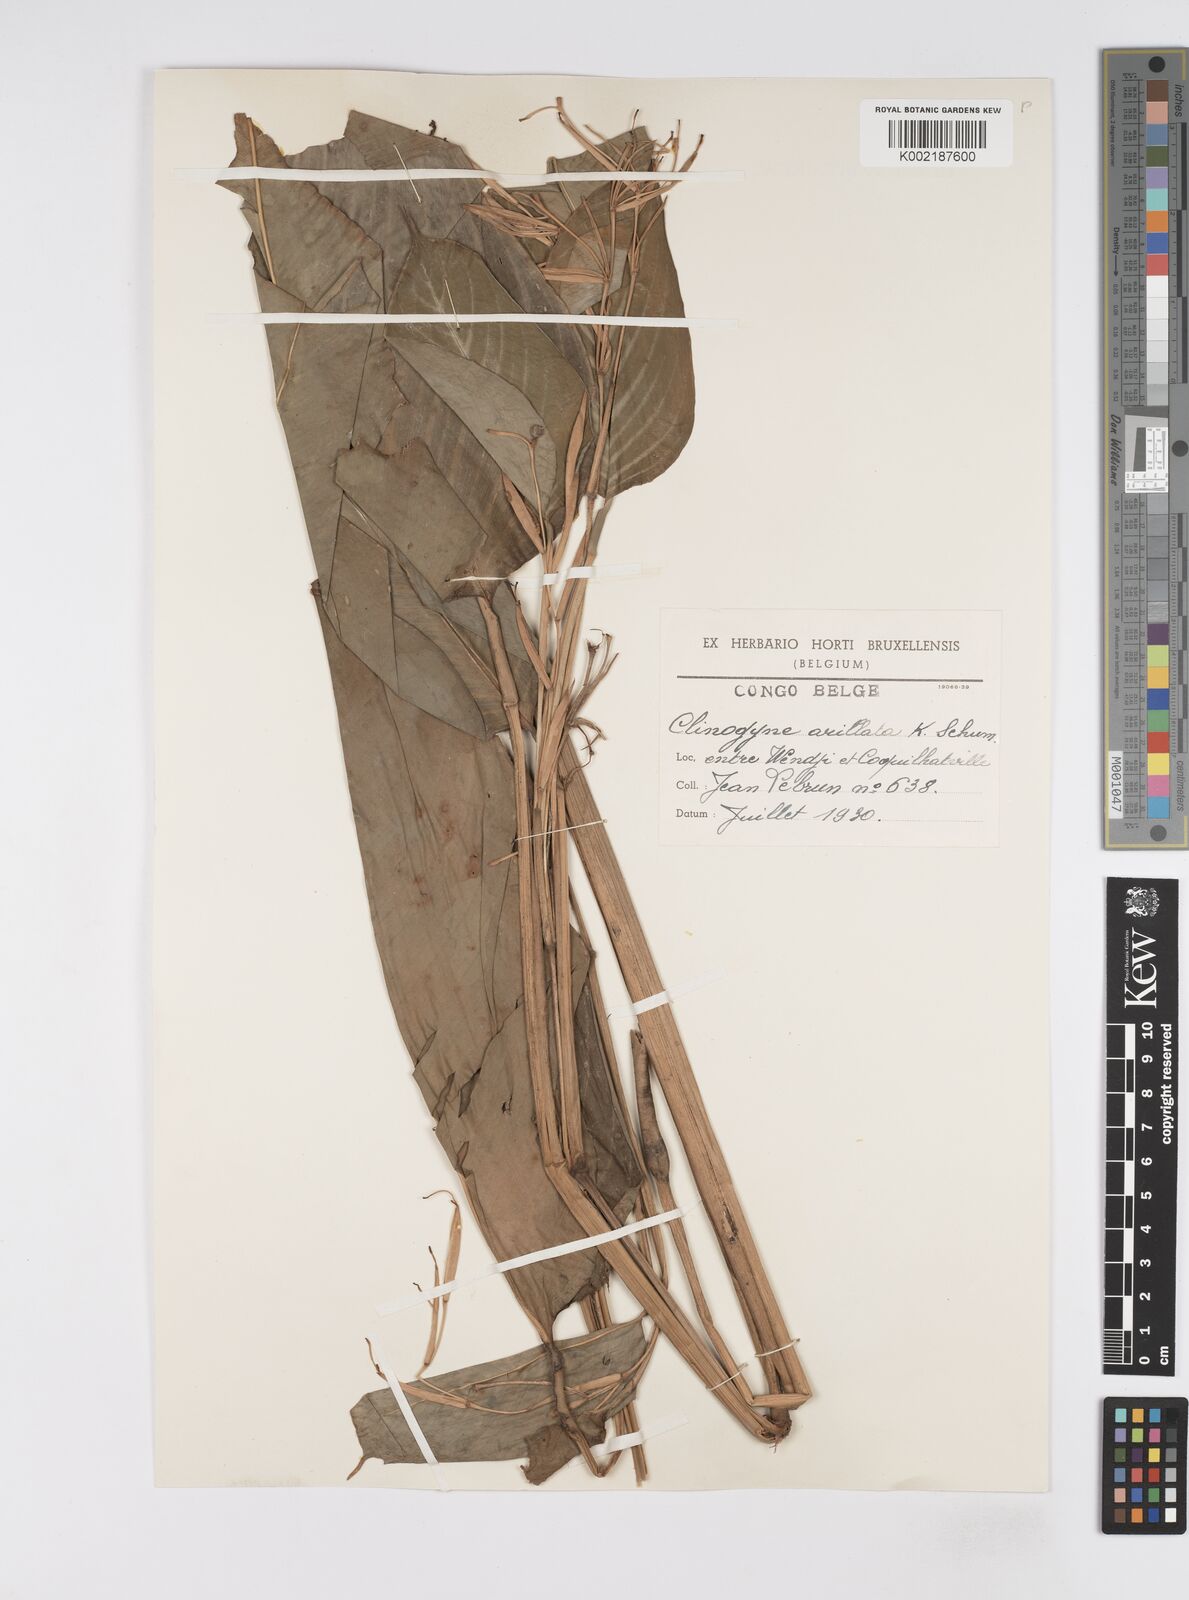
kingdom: Plantae
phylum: Tracheophyta
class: Liliopsida
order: Zingiberales
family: Marantaceae
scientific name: Marantaceae
